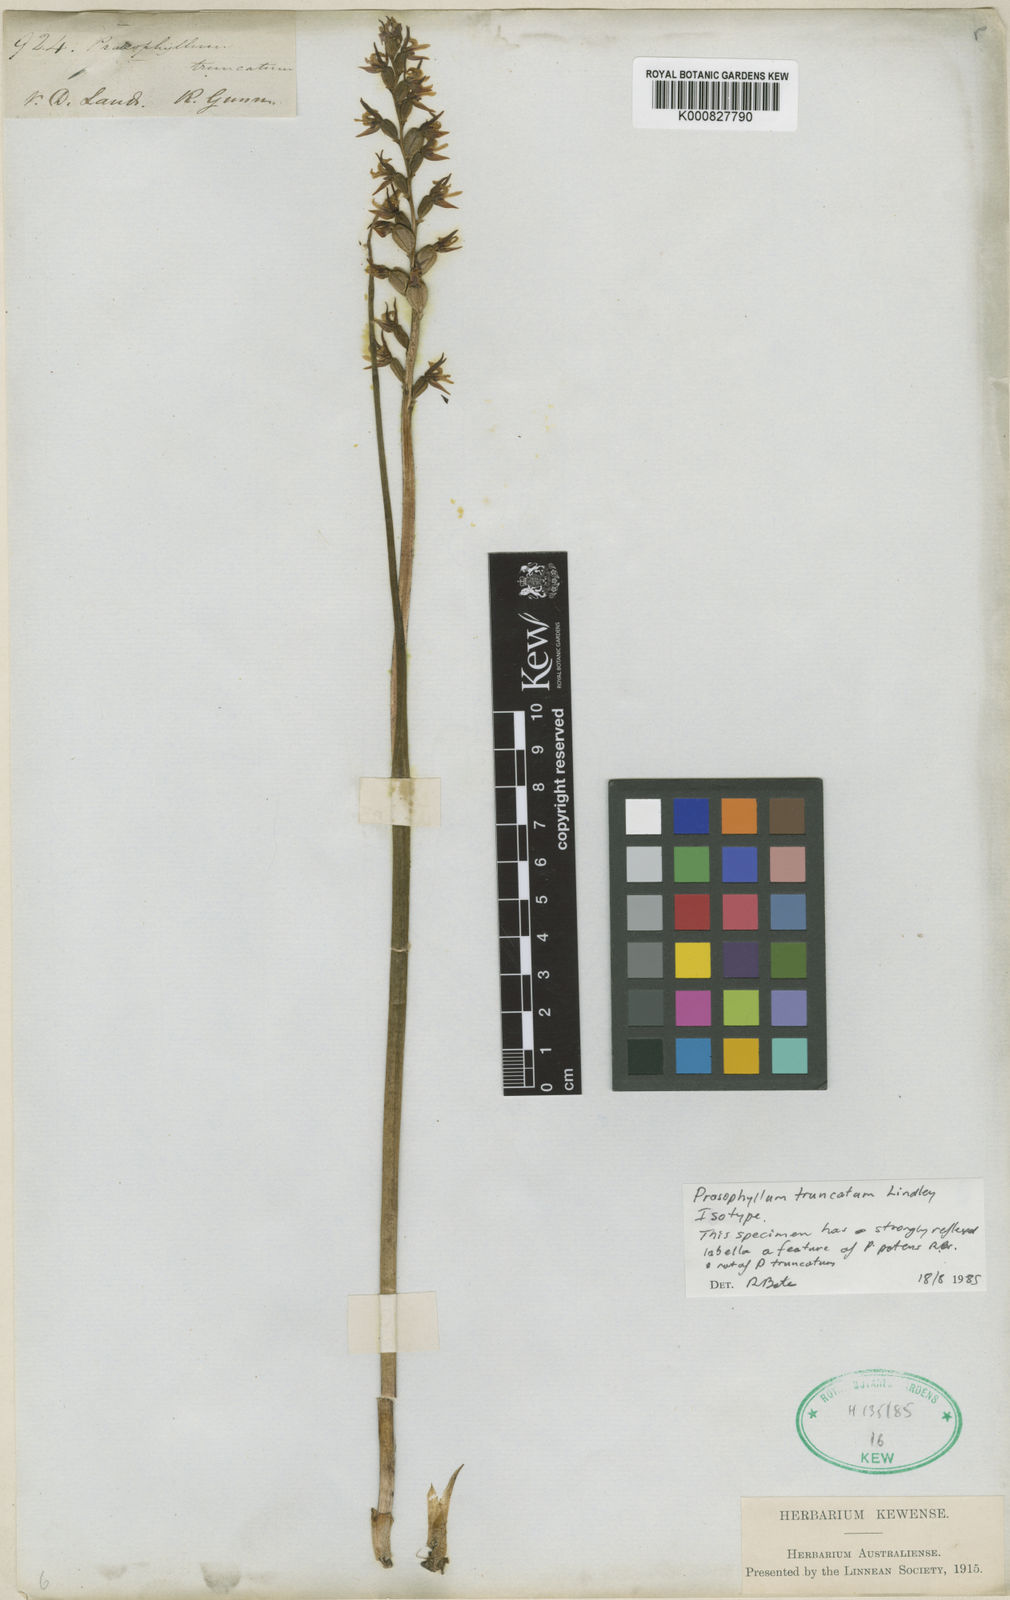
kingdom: Plantae
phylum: Tracheophyta
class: Liliopsida
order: Asparagales
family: Orchidaceae
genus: Prasophyllum
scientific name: Prasophyllum truncatum
